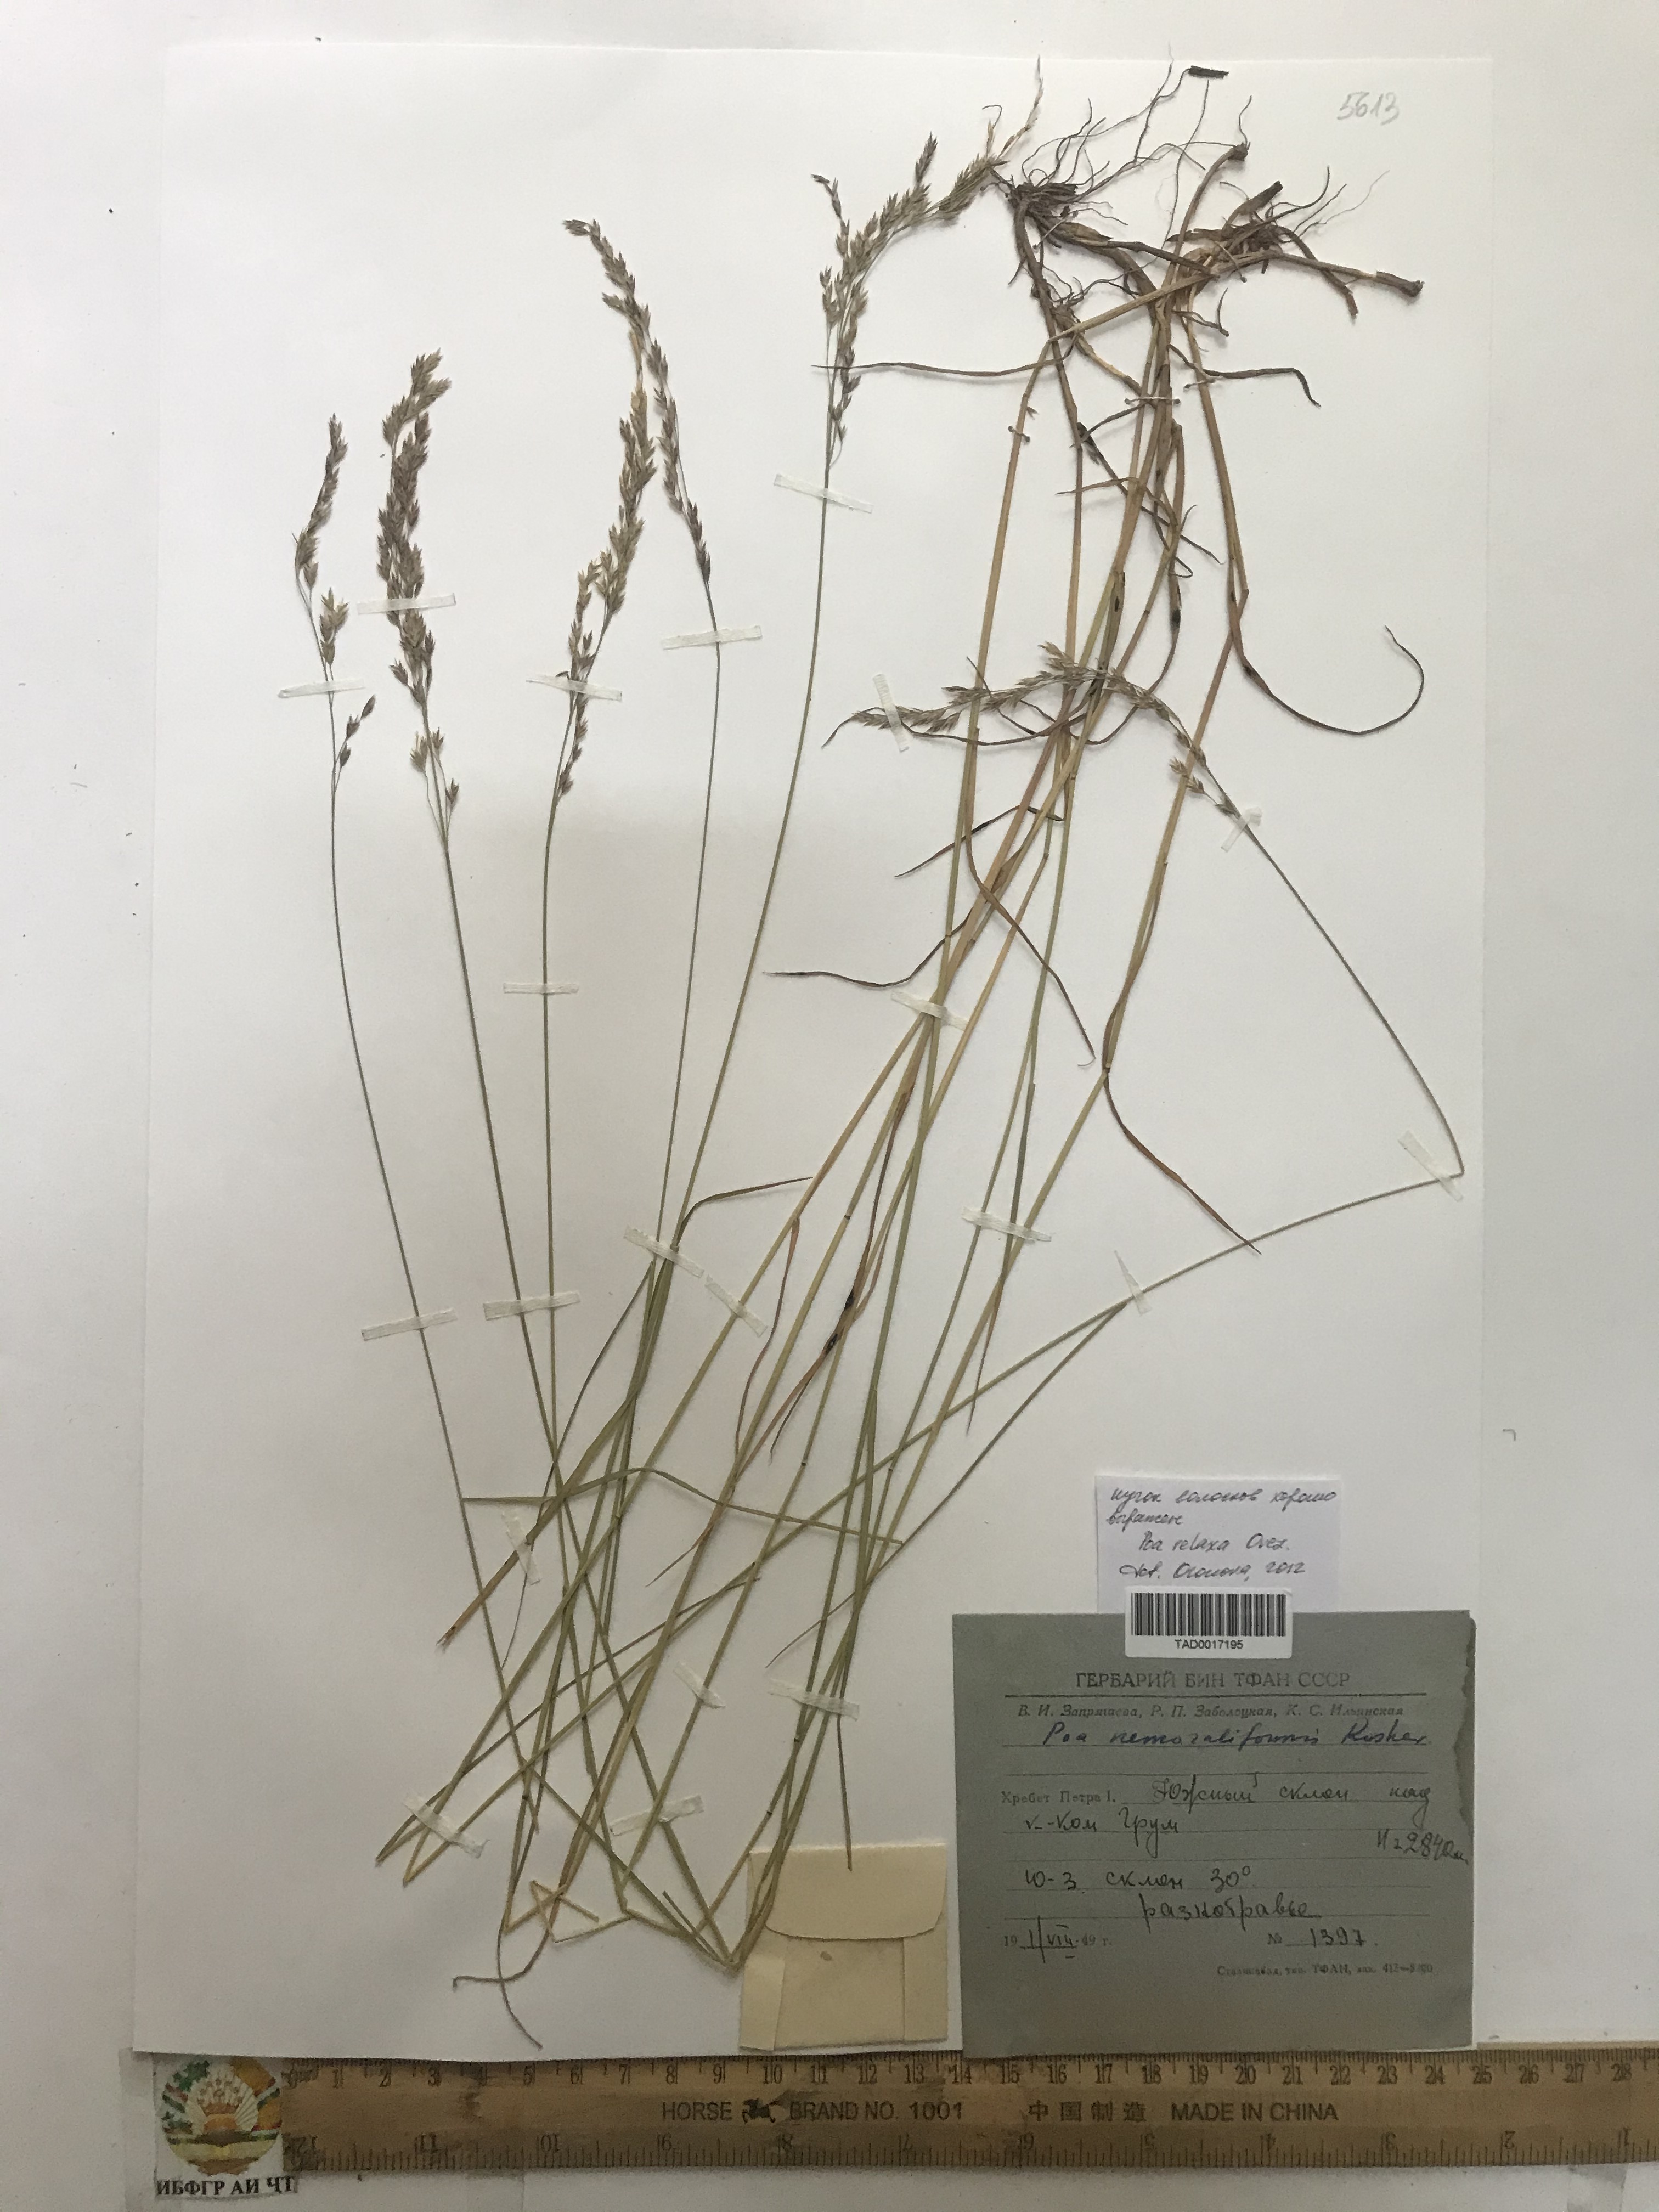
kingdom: Plantae
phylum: Tracheophyta
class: Liliopsida
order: Poales
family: Poaceae
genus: Poa
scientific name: Poa urssulensis
